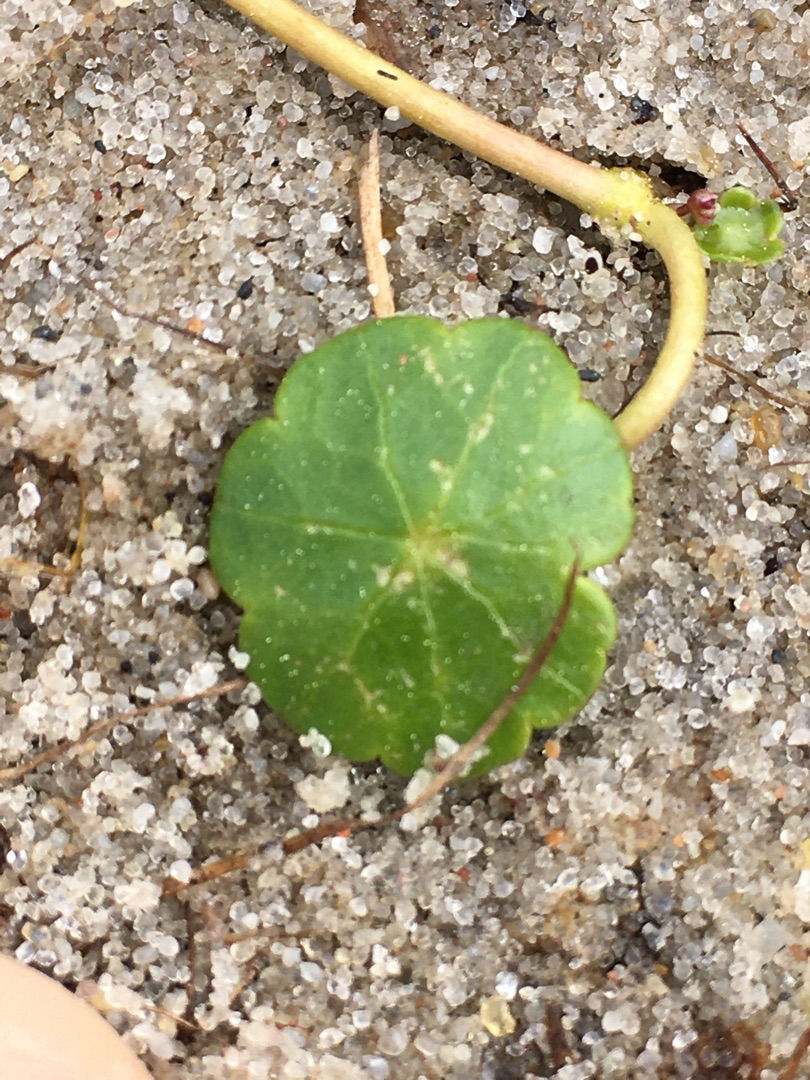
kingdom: Plantae
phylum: Tracheophyta
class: Magnoliopsida
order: Apiales
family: Araliaceae
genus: Hydrocotyle
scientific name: Hydrocotyle vulgaris
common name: Vandnavle
